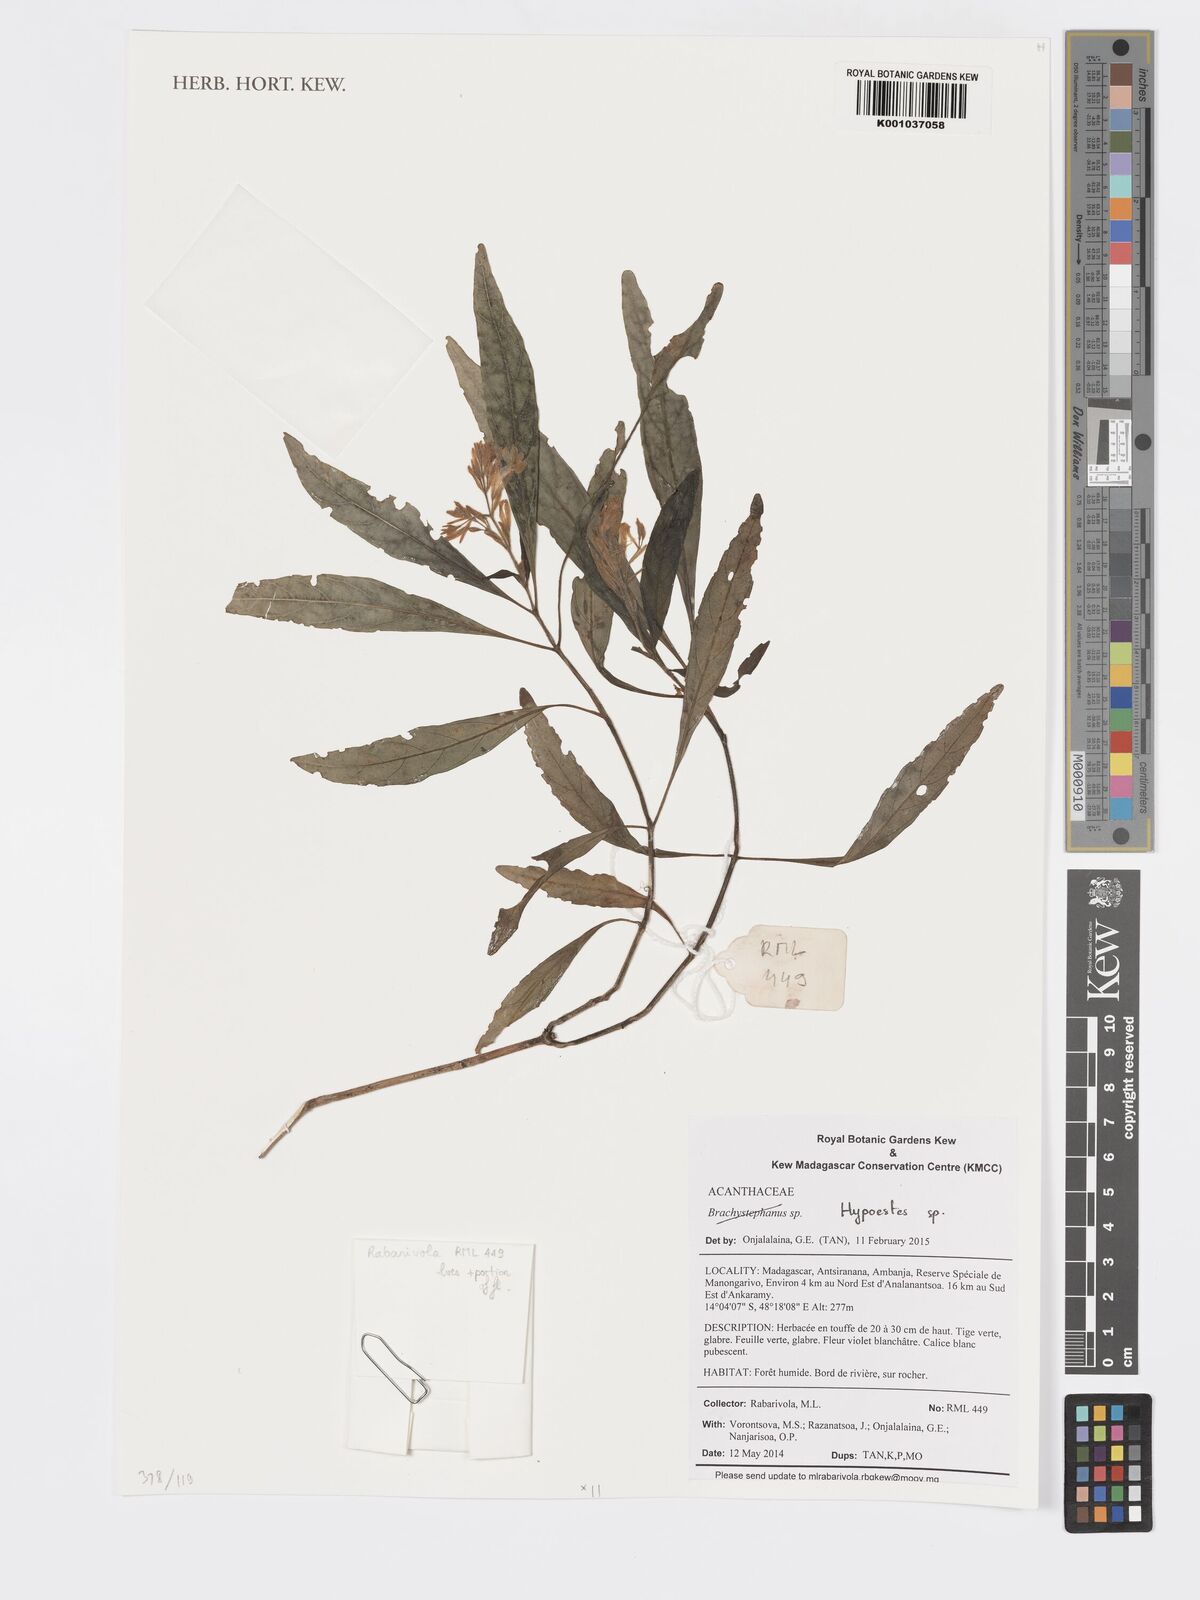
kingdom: Plantae
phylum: Tracheophyta
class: Magnoliopsida
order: Lamiales
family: Acanthaceae
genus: Hypoestes
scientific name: Hypoestes
